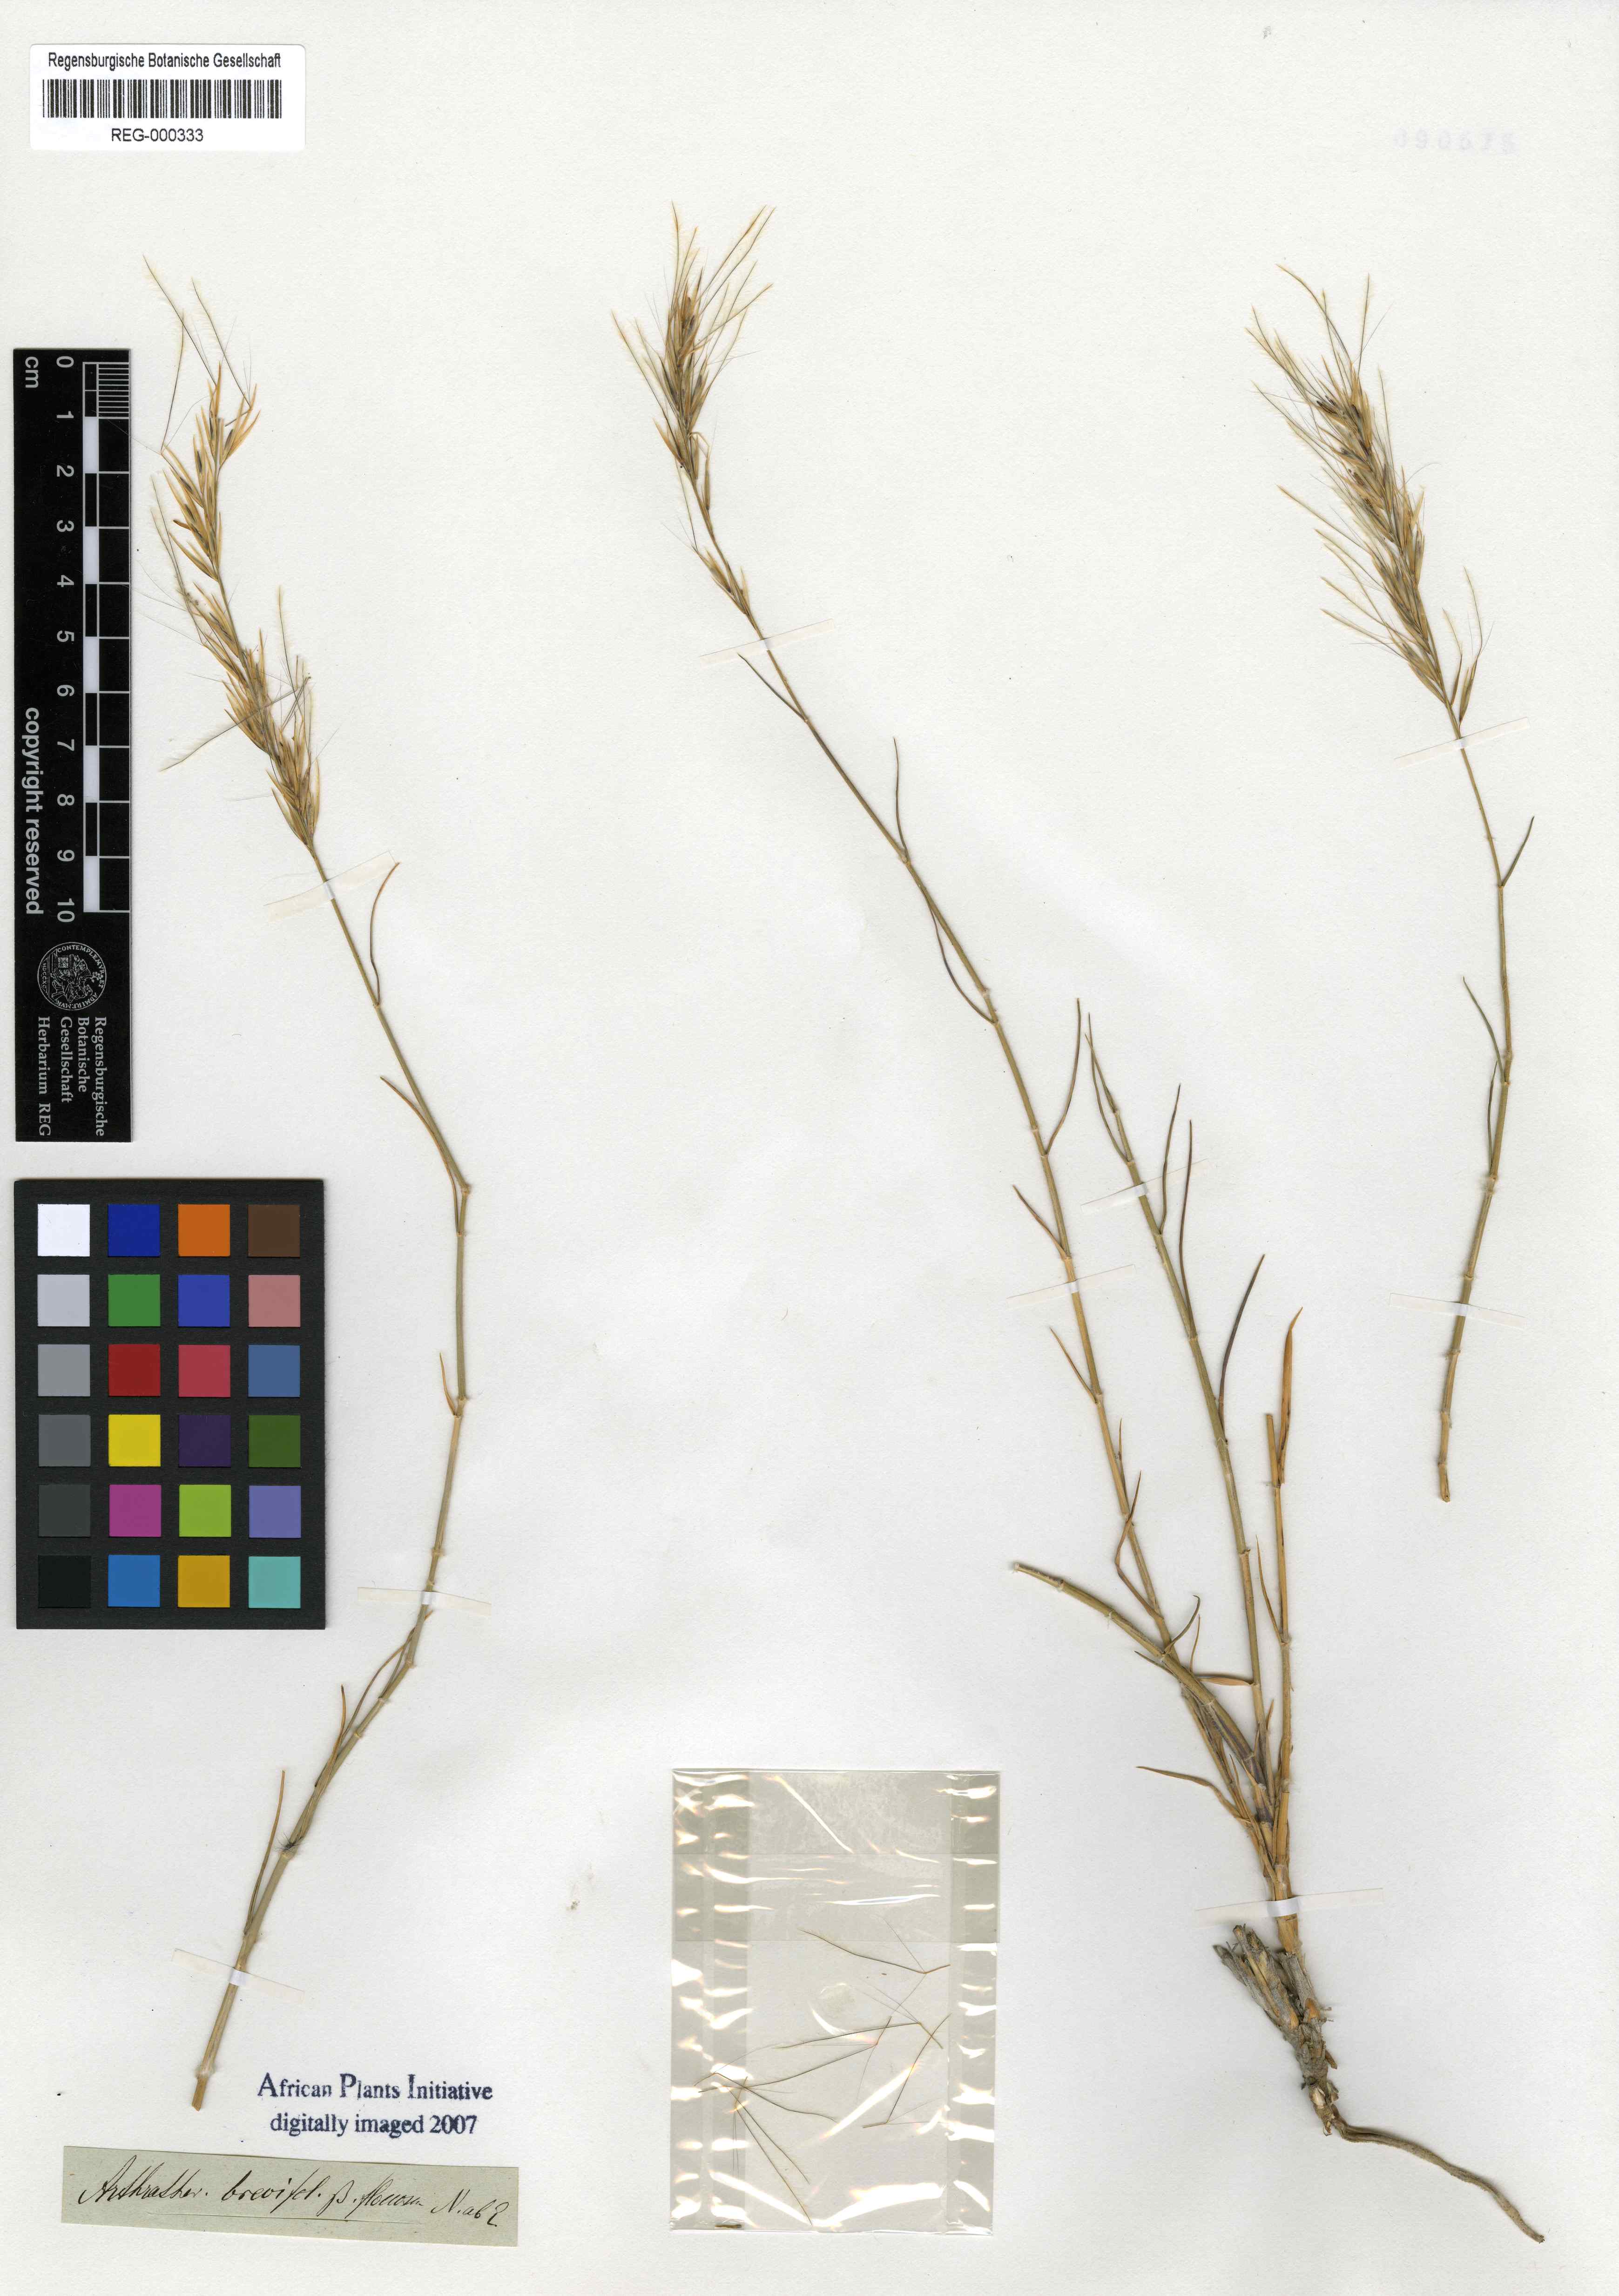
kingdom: Plantae
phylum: Tracheophyta
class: Liliopsida
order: Poales
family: Poaceae
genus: Stipagrostis
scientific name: Stipagrostis brevifolia
